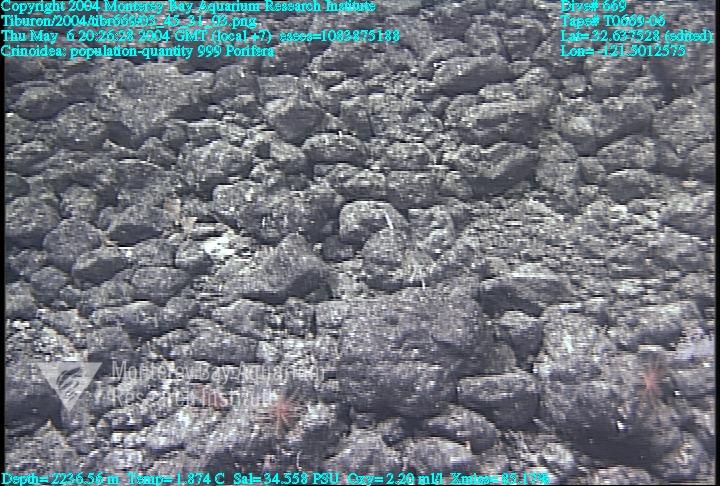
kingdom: Animalia
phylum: Porifera
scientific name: Porifera
